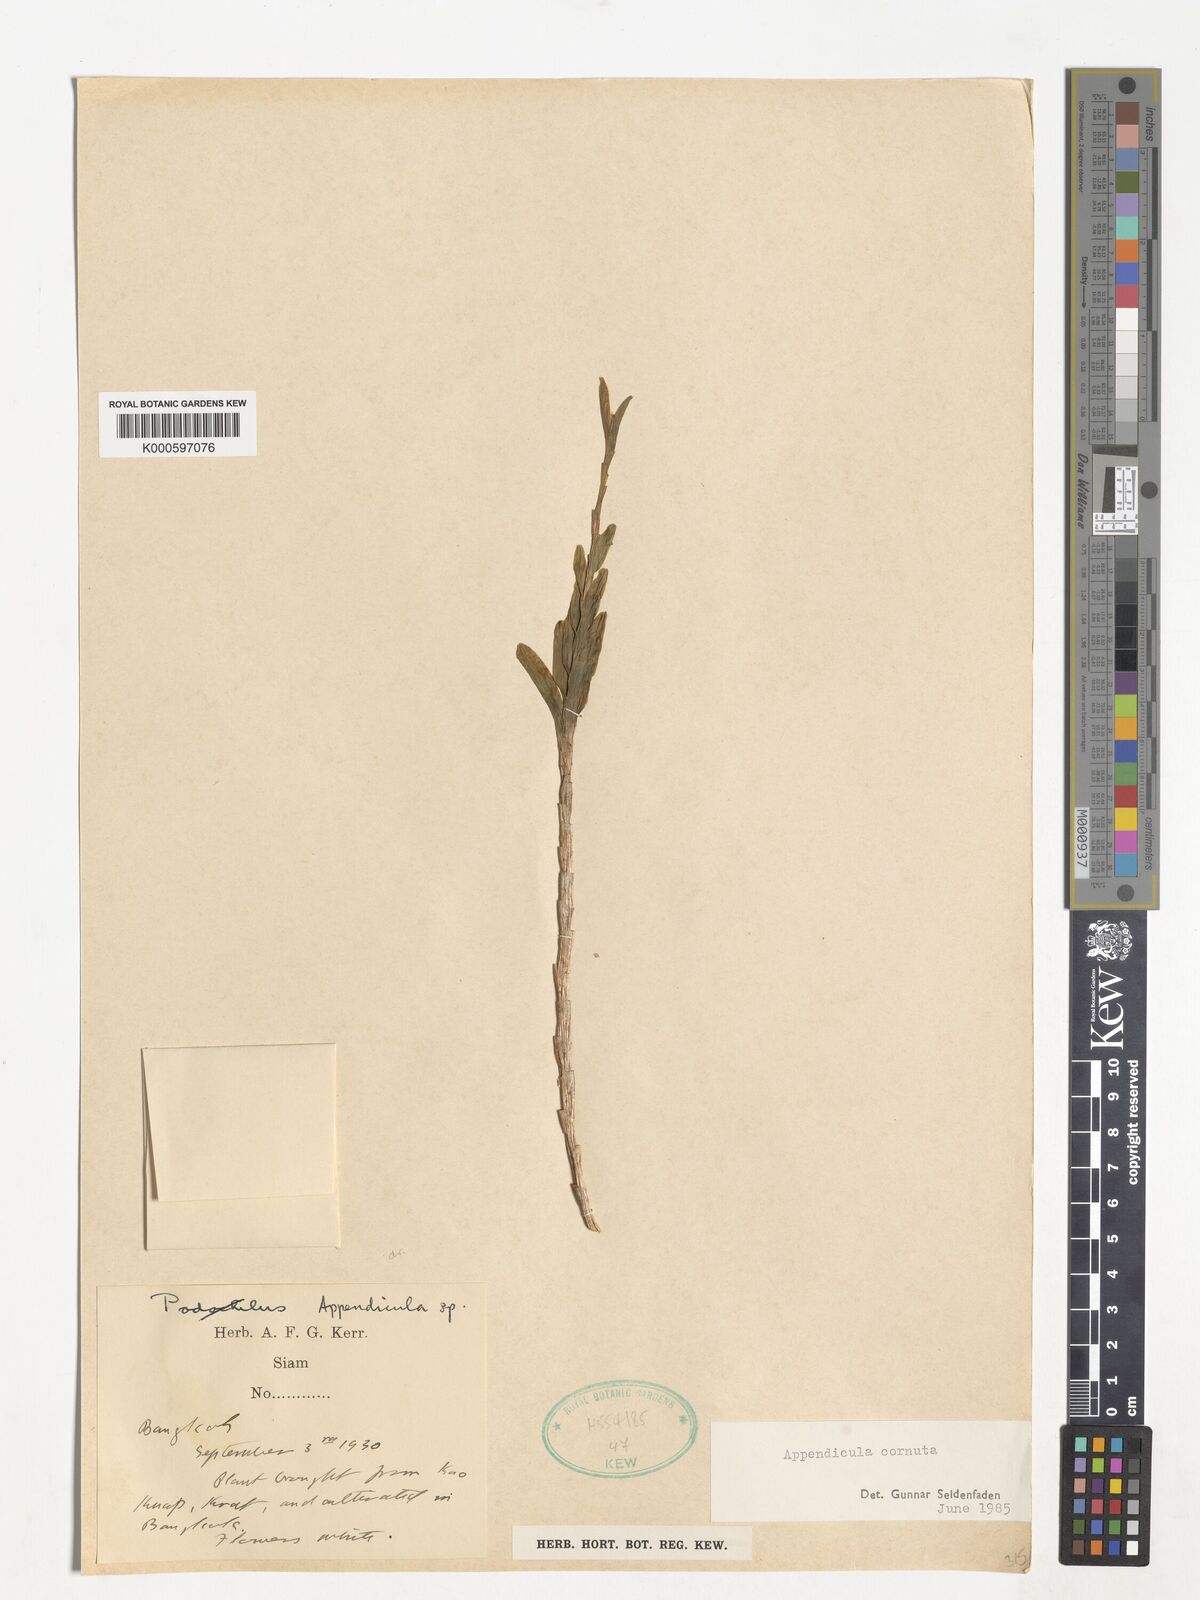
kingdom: Plantae
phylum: Tracheophyta
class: Liliopsida
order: Asparagales
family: Orchidaceae
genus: Appendicula
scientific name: Appendicula cornuta
